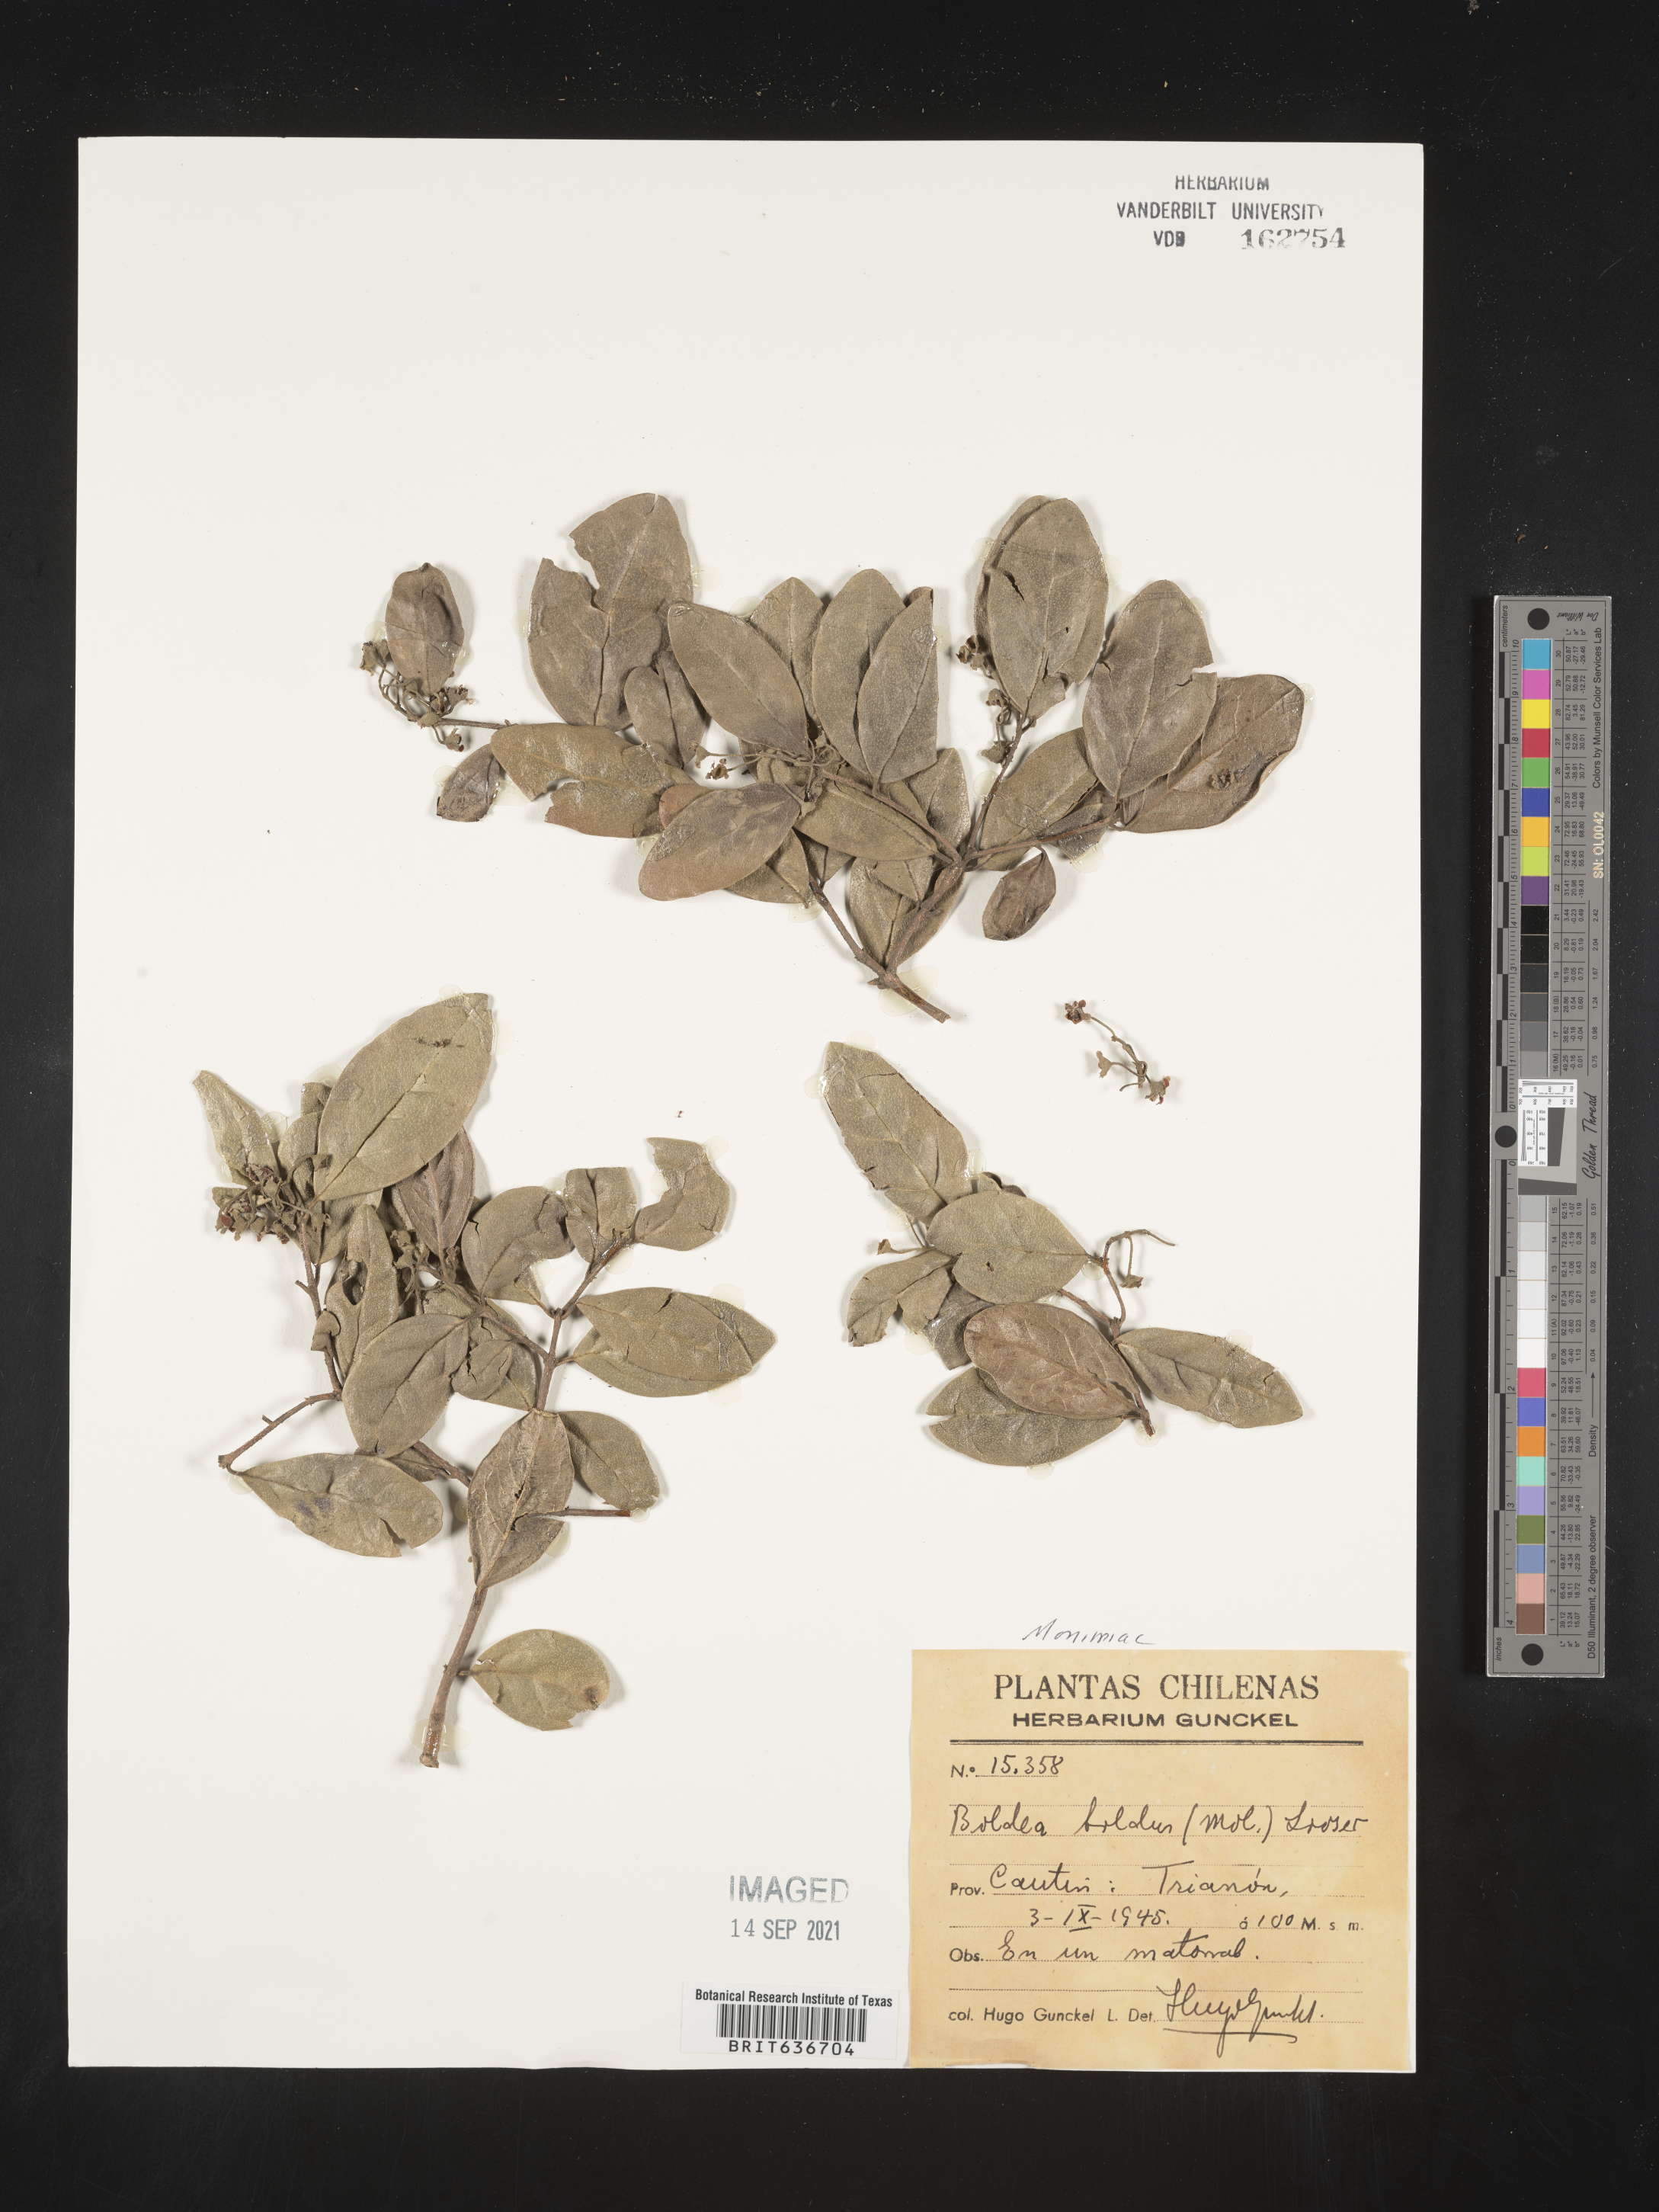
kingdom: Plantae
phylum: Tracheophyta
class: Magnoliopsida
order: Laurales
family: Monimiaceae
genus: Peumus
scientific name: Peumus
